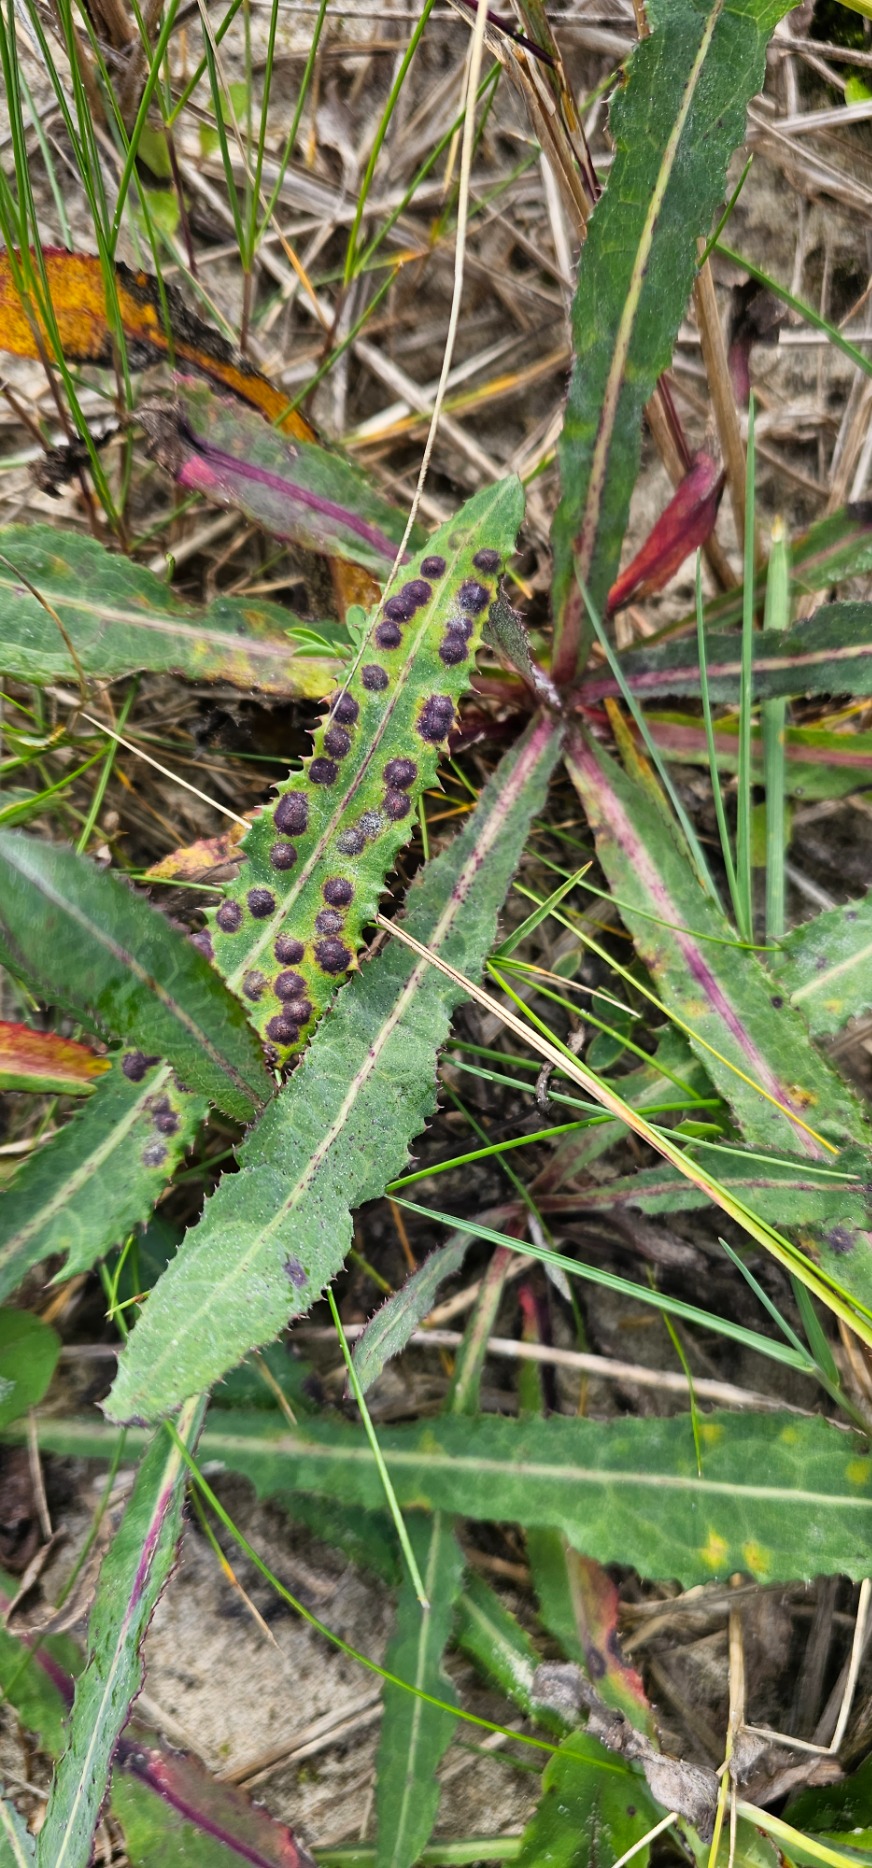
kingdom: Animalia
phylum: Arthropoda
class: Insecta
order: Diptera
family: Cecidomyiidae
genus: Cystiphora
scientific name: Cystiphora sonchi
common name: Svineblæregalmyg
